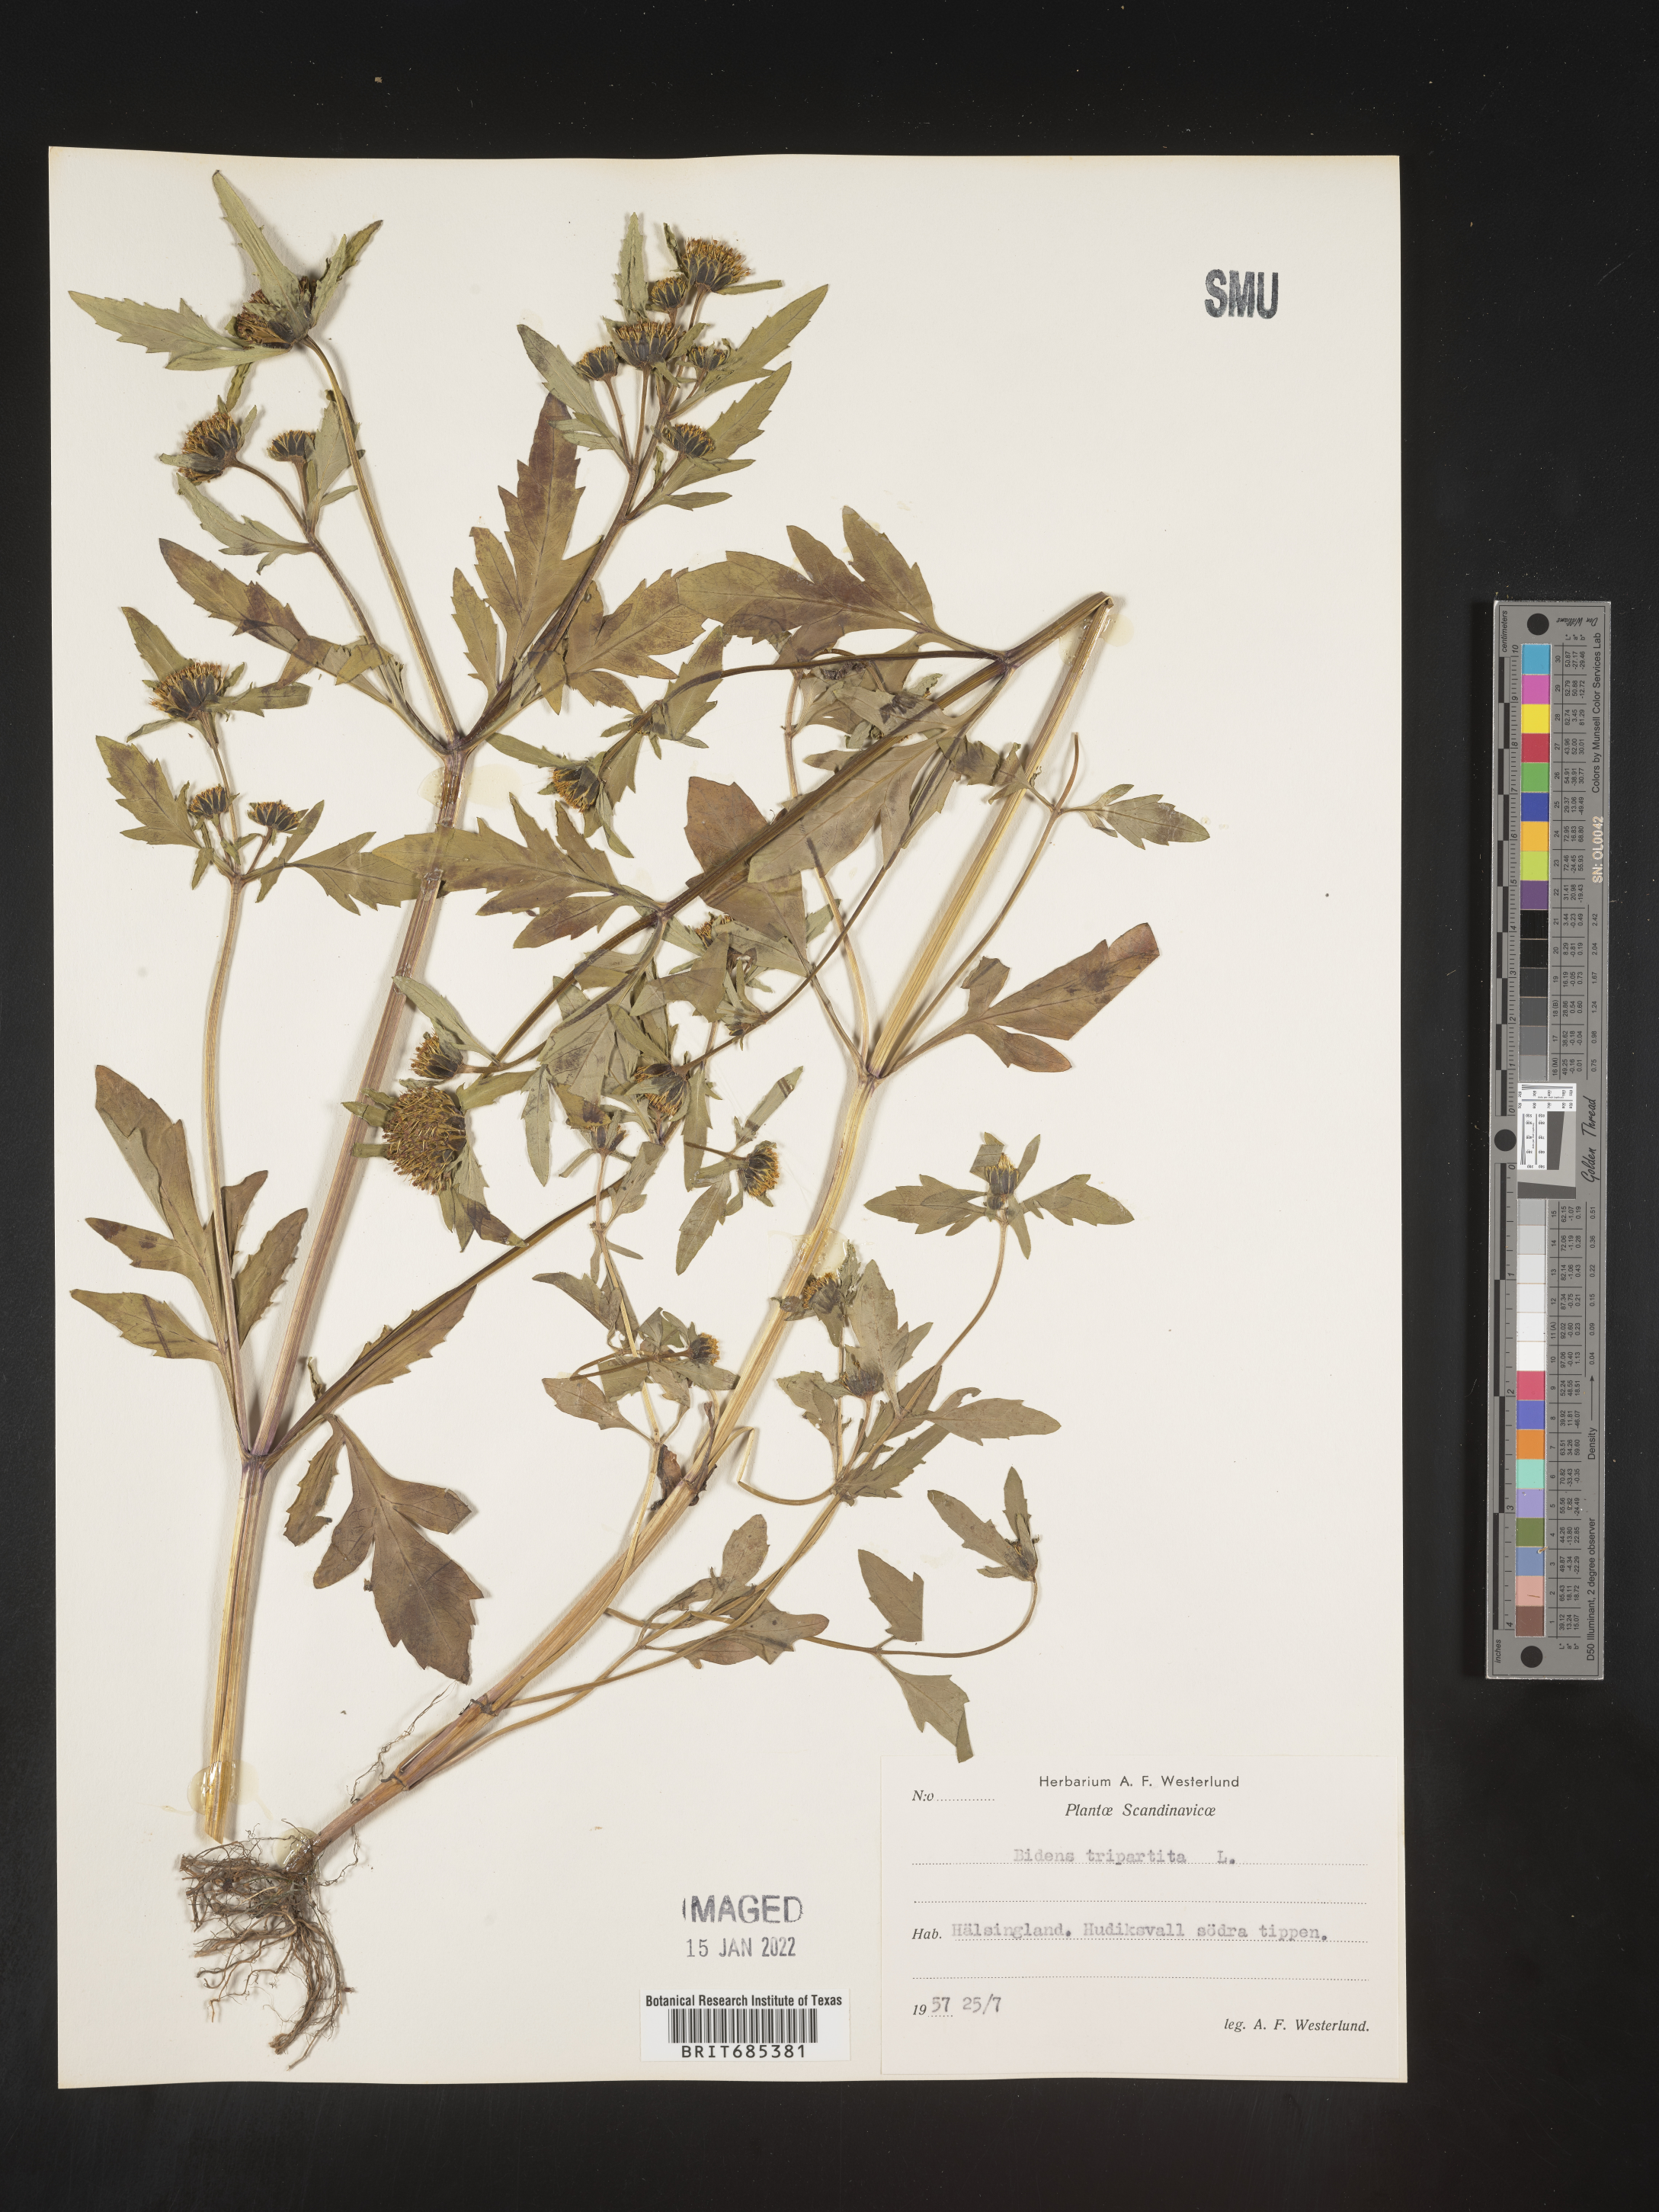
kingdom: Plantae
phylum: Tracheophyta
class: Magnoliopsida
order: Asterales
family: Asteraceae
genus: Bidens
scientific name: Bidens
